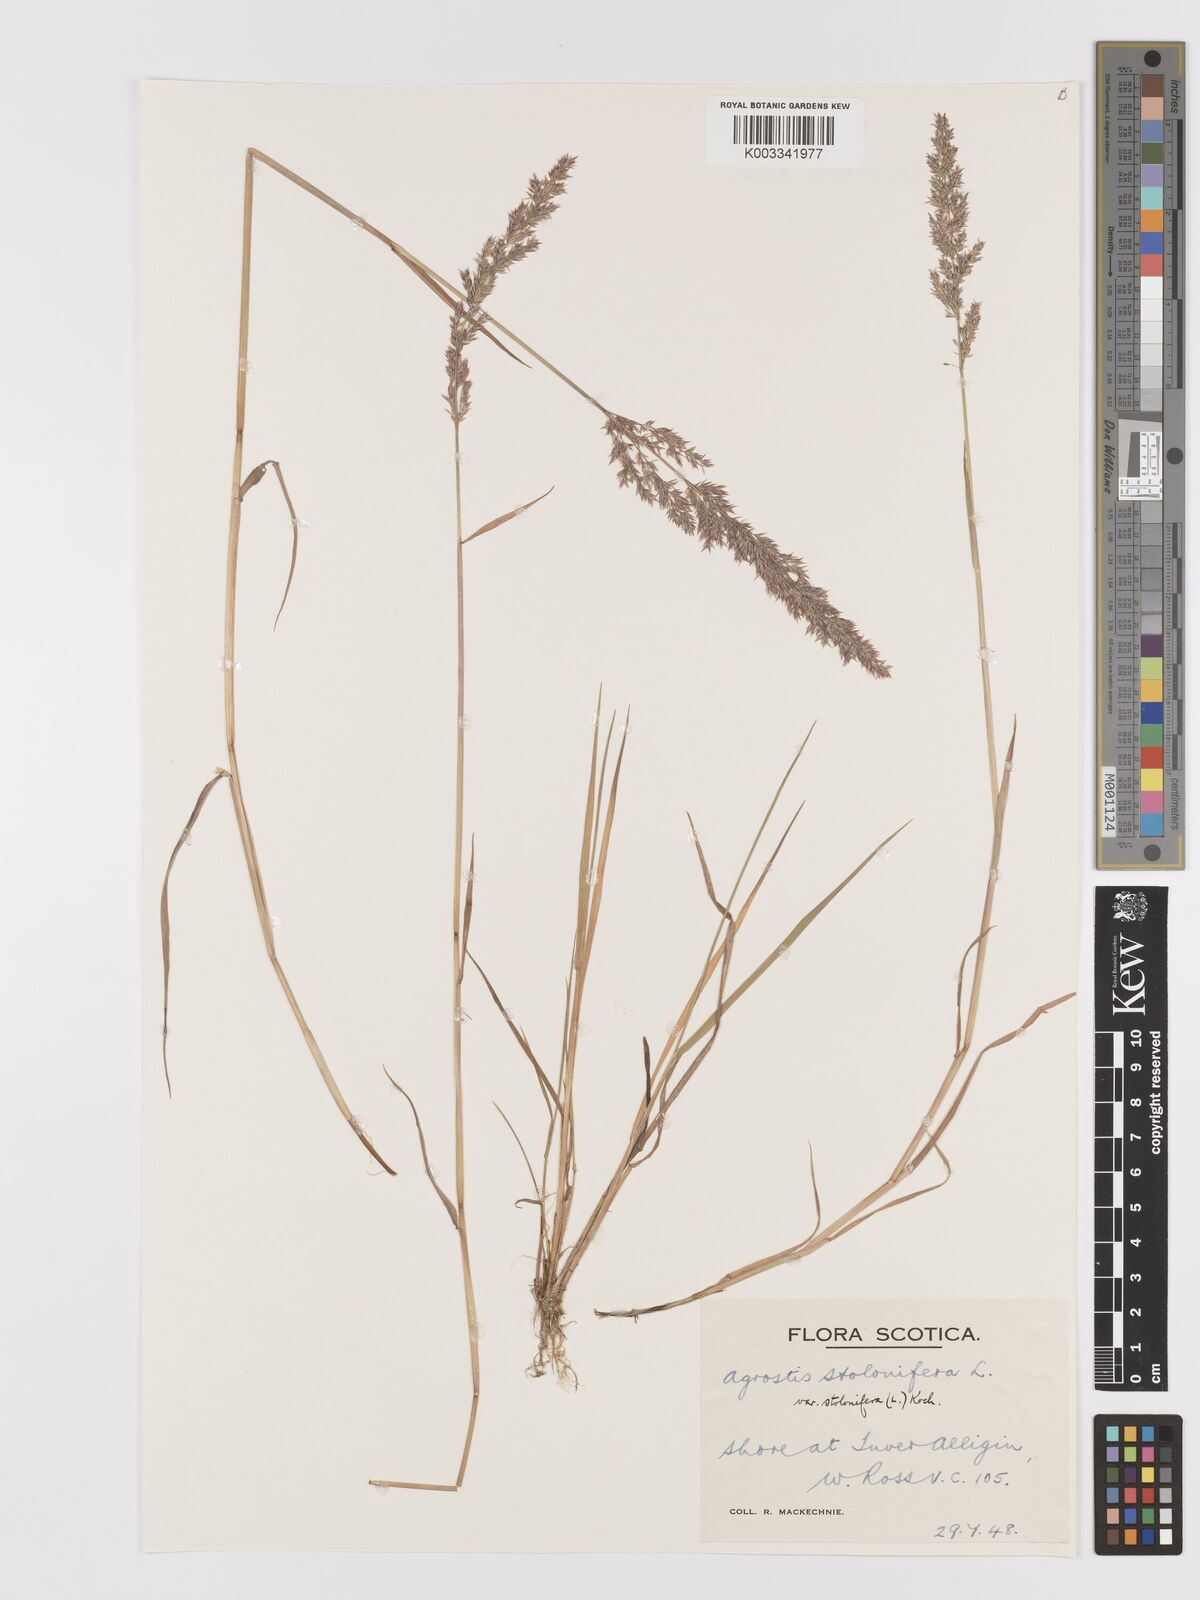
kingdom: Plantae
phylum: Tracheophyta
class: Liliopsida
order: Poales
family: Poaceae
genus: Agrostis
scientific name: Agrostis stolonifera
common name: Creeping bentgrass
